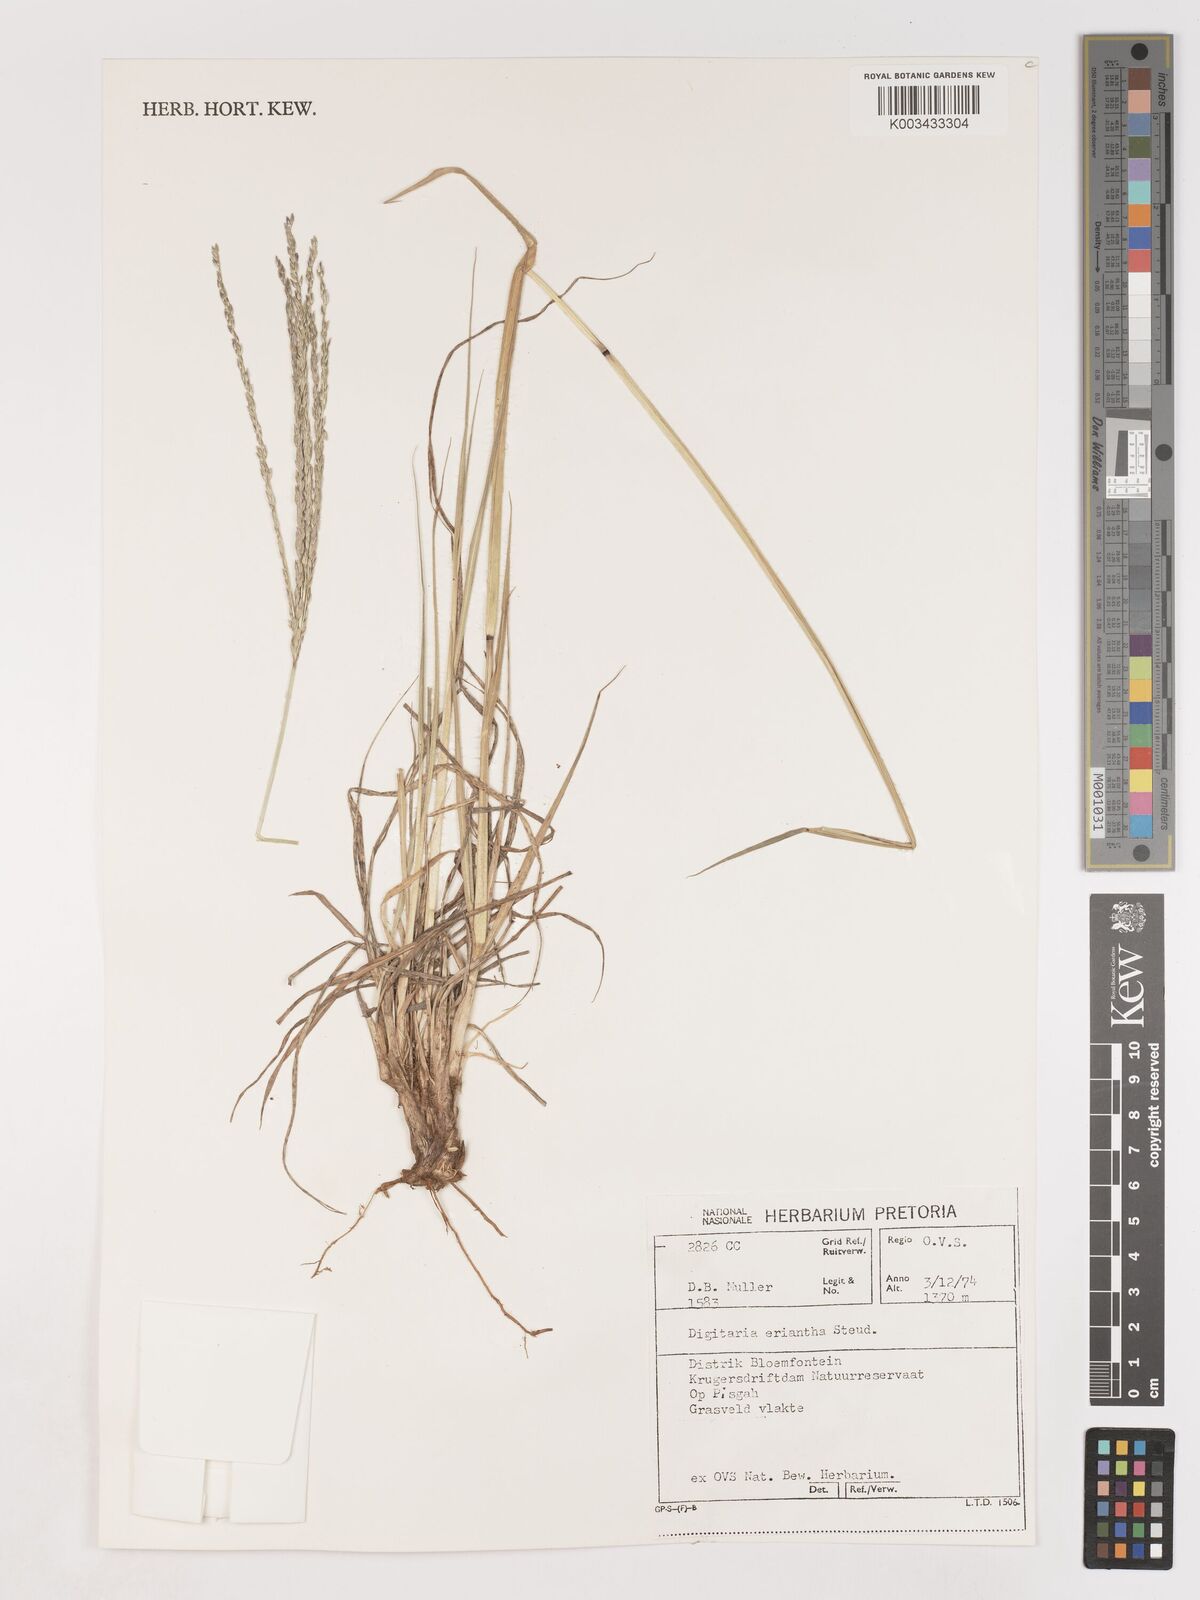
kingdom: Plantae
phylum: Tracheophyta
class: Liliopsida
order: Poales
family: Poaceae
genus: Digitaria
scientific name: Digitaria eriantha
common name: Digitgrass
